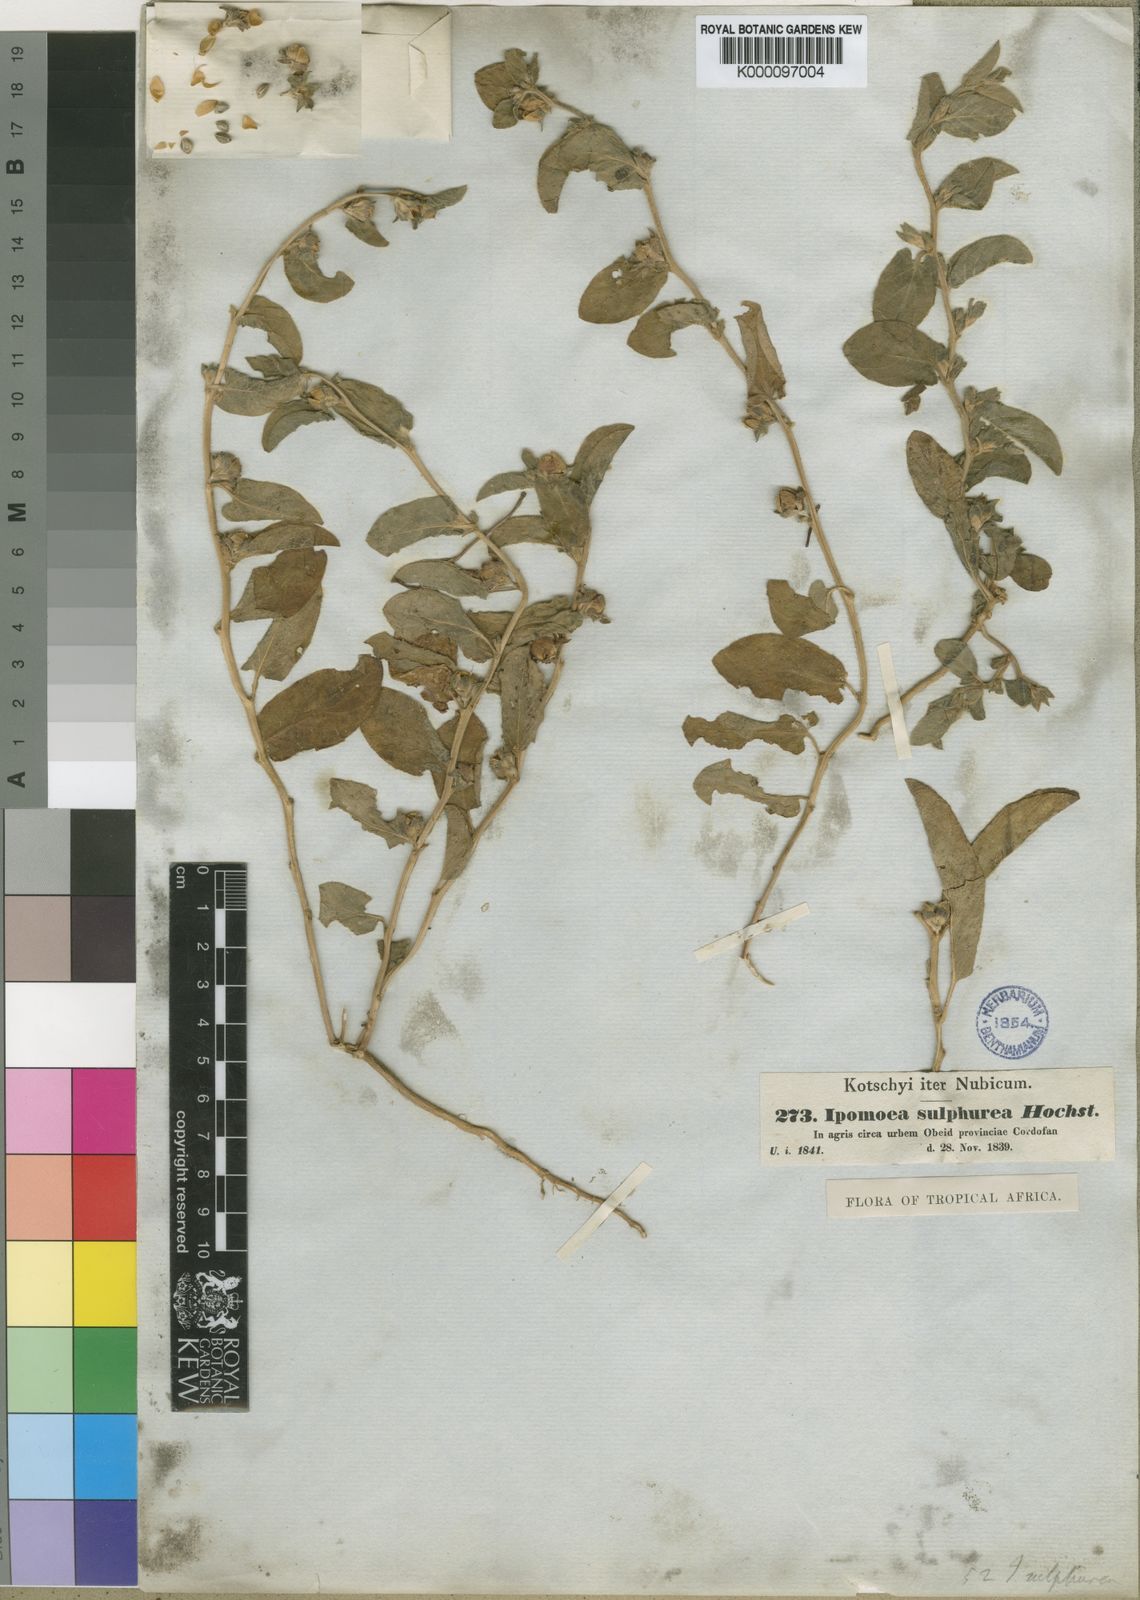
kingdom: Plantae
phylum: Tracheophyta
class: Magnoliopsida
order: Solanales
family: Convolvulaceae
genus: Ipomoea
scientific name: Ipomoea vagans
